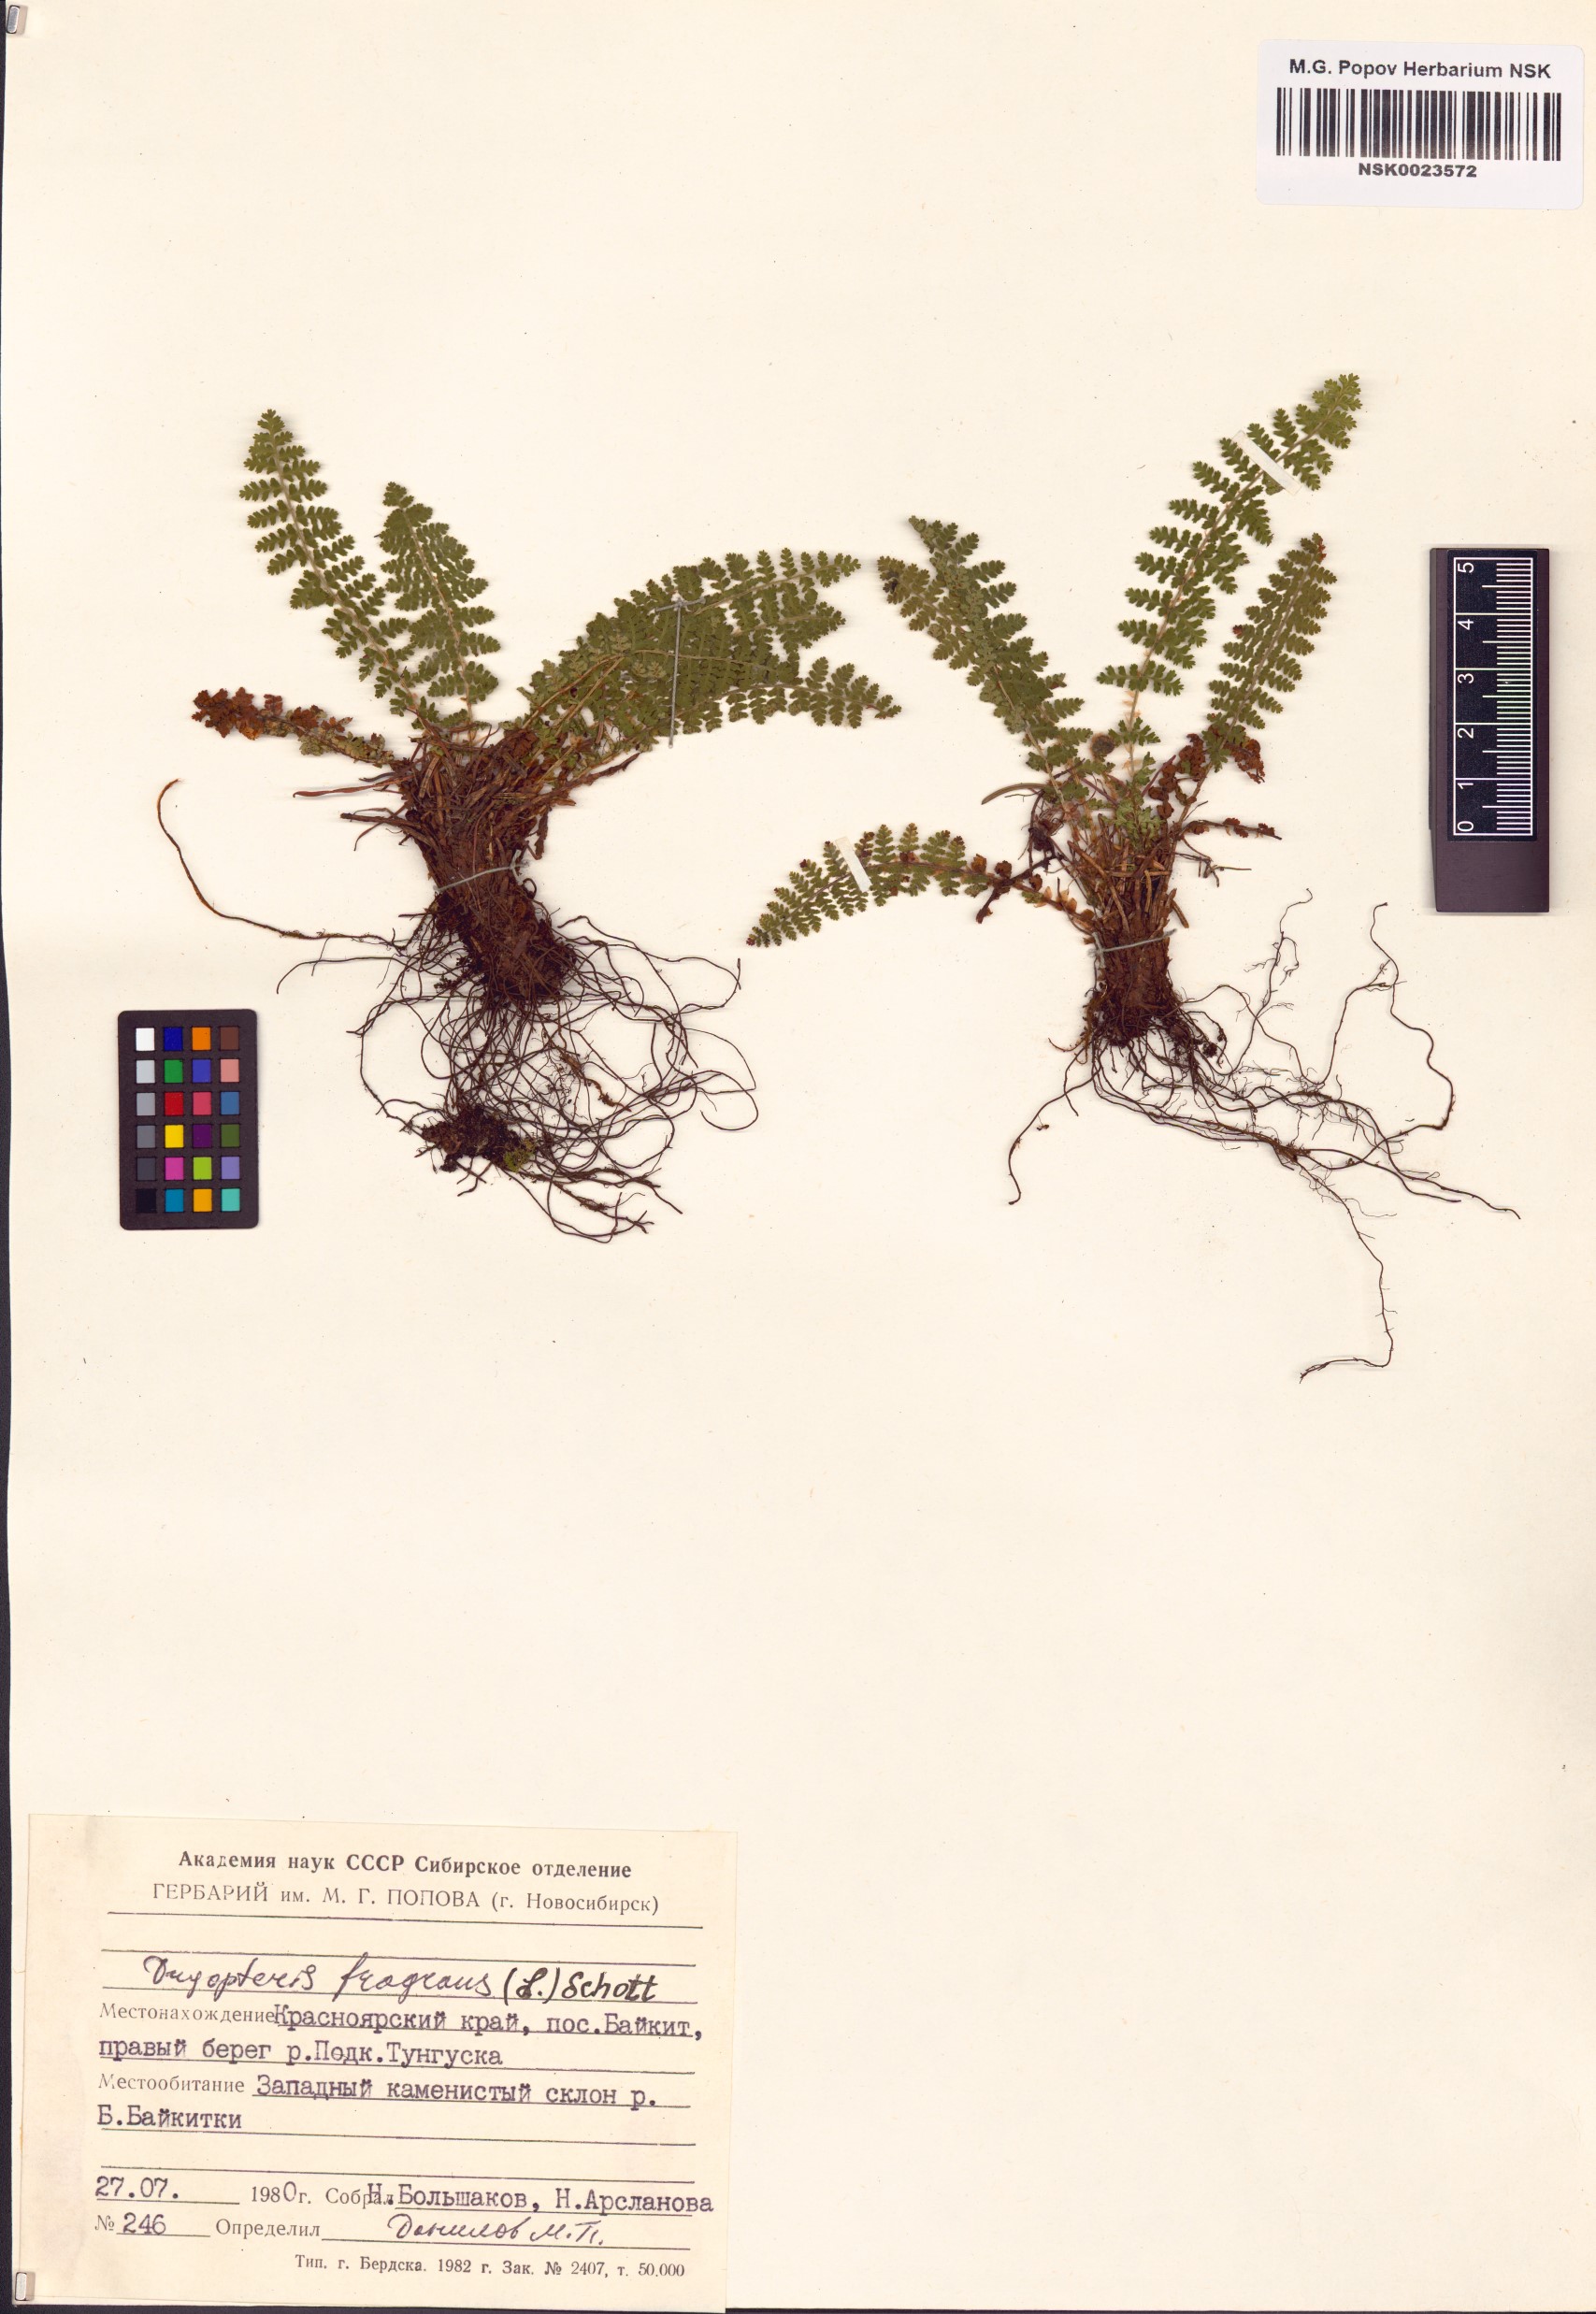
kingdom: Plantae
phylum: Tracheophyta
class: Polypodiopsida
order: Polypodiales
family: Dryopteridaceae
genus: Dryopteris
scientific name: Dryopteris fragrans
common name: Fragrant wood fern
